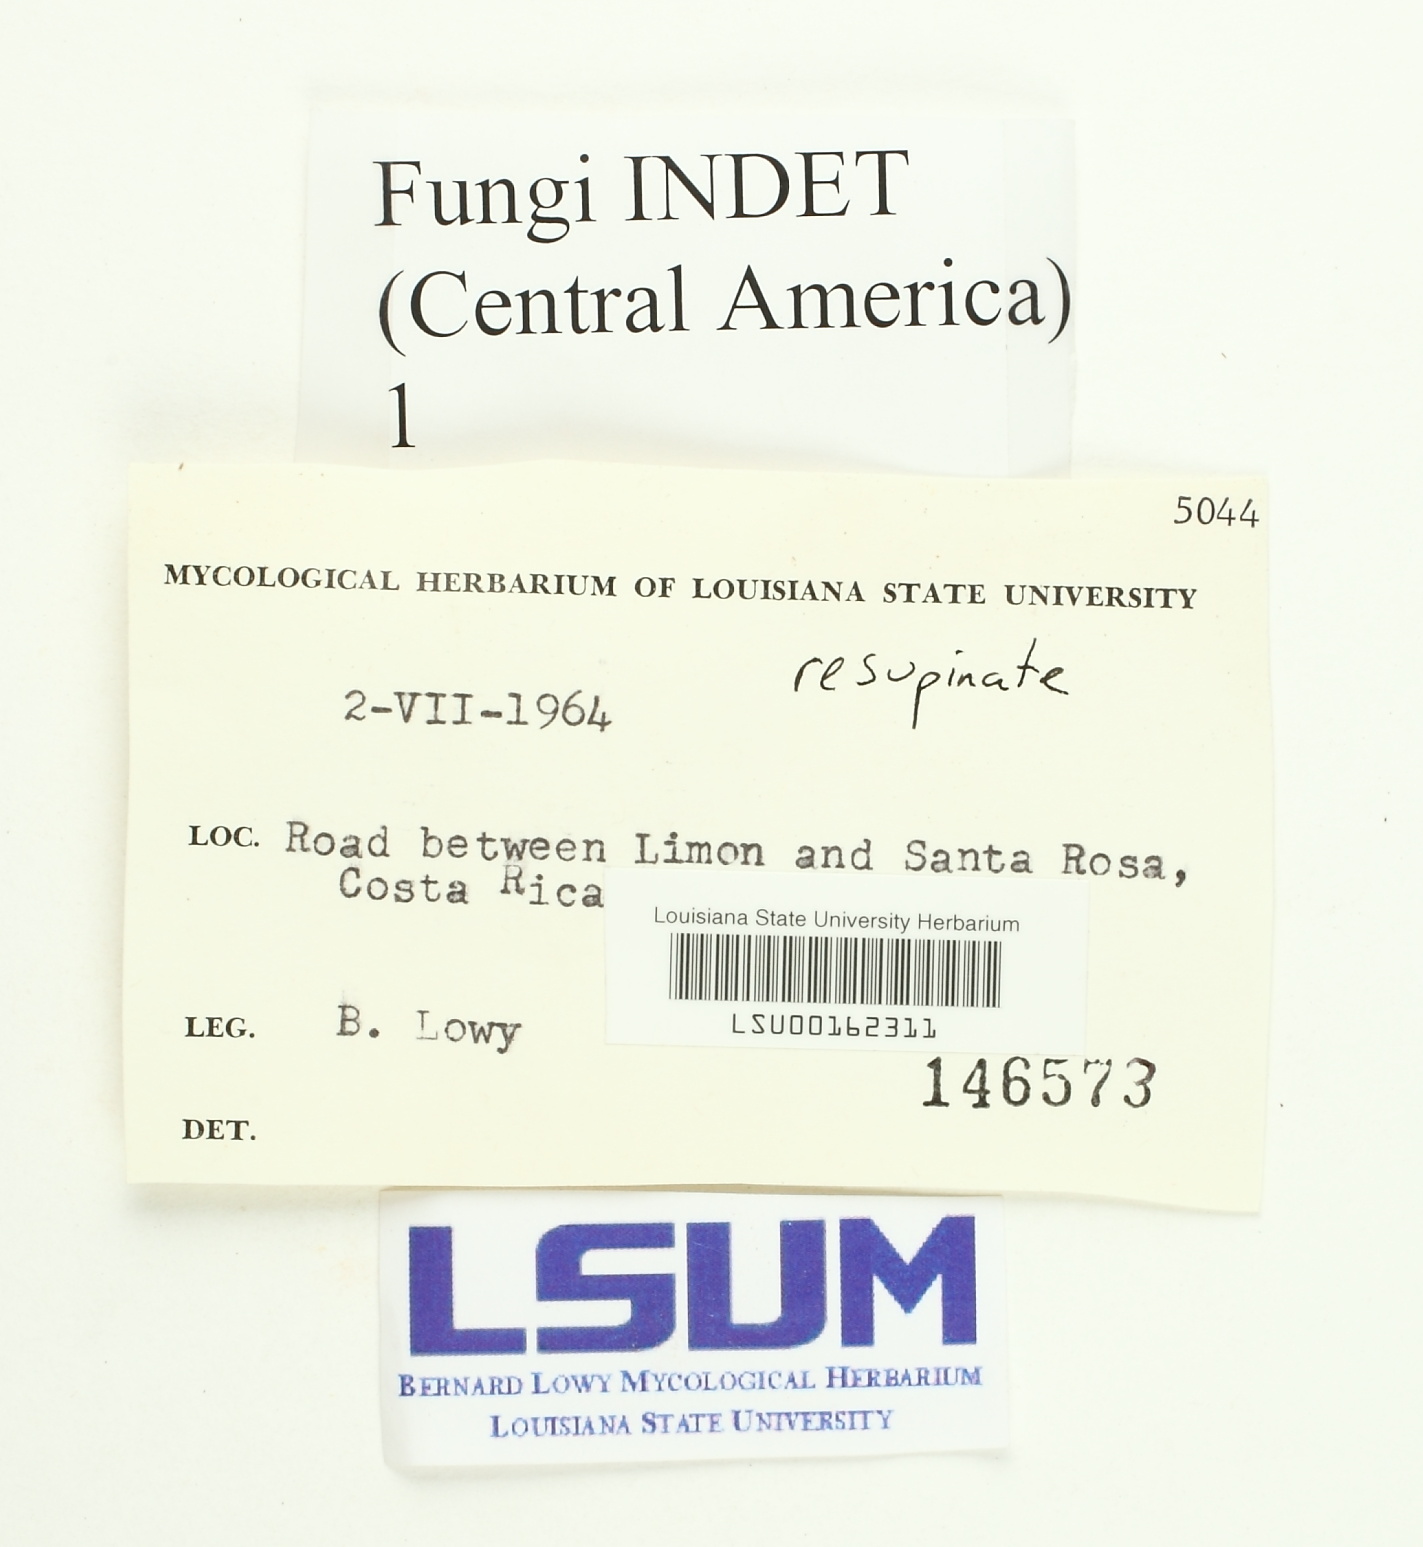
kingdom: Fungi
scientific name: Fungi
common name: Fungi
